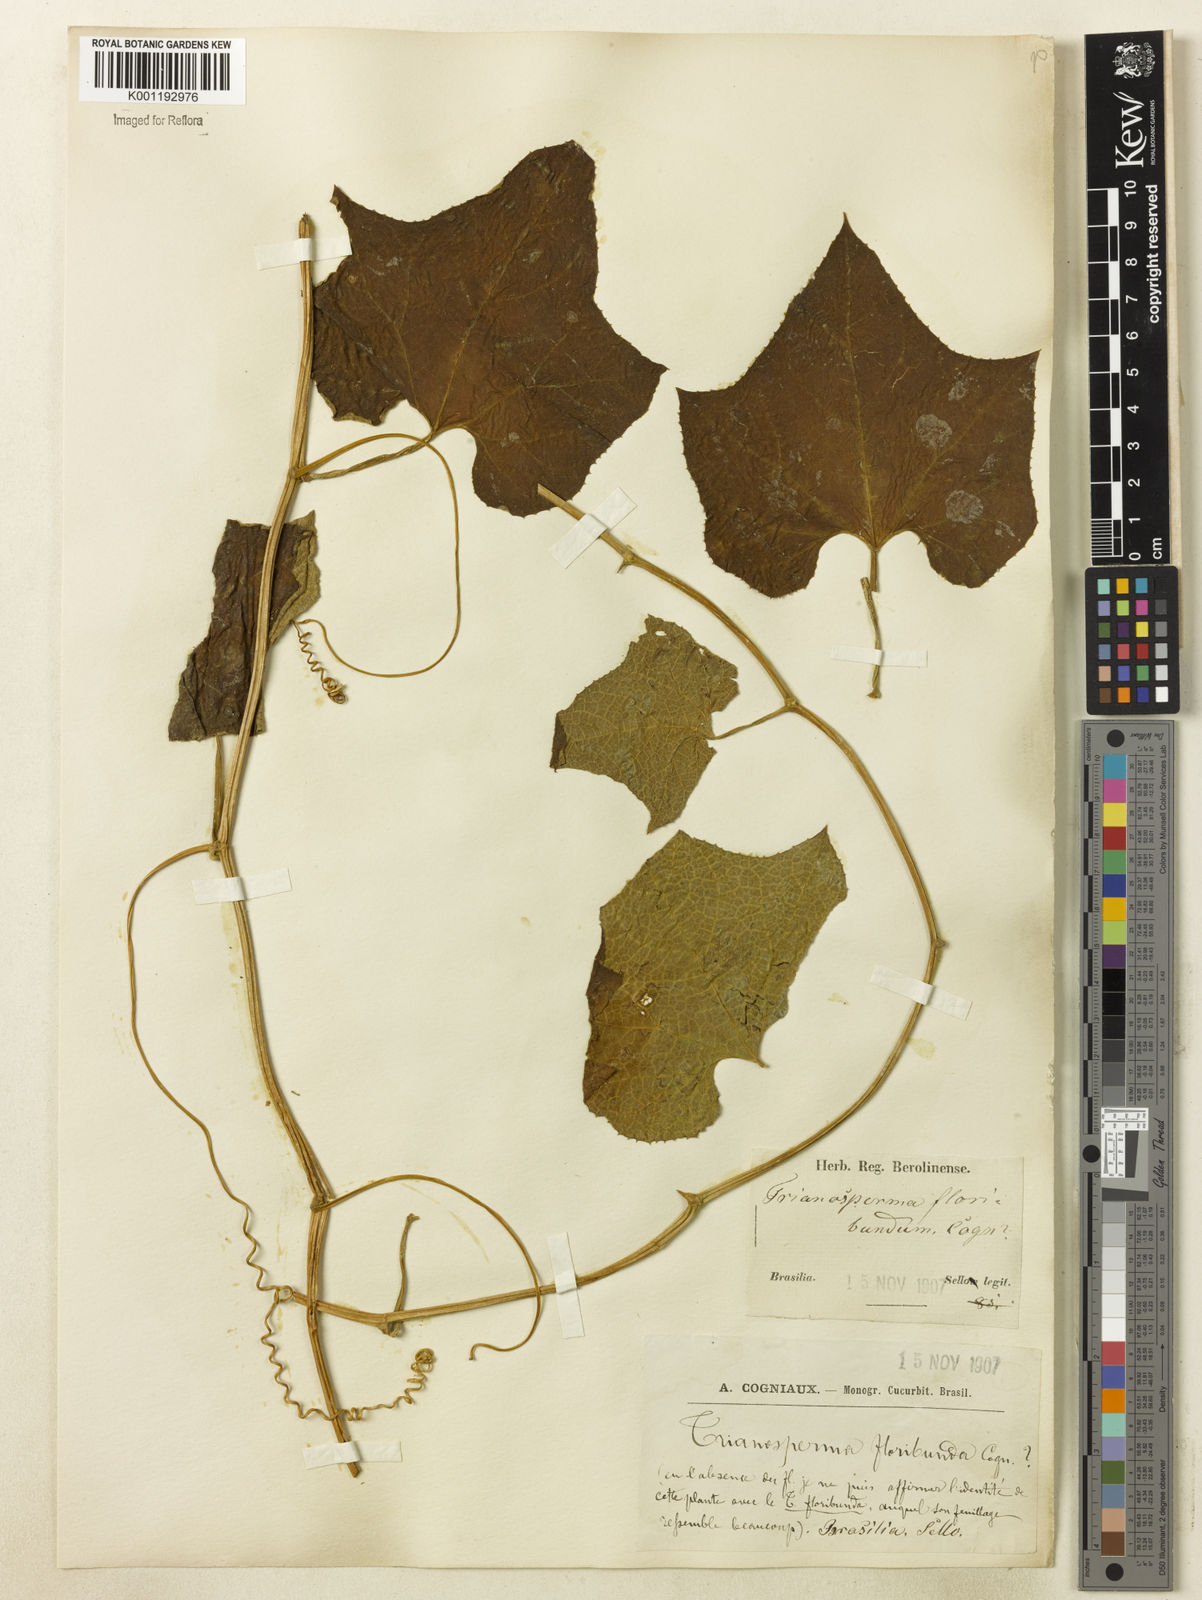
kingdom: Plantae
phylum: Tracheophyta
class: Magnoliopsida
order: Cucurbitales
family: Cucurbitaceae
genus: Cayaponia
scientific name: Cayaponia floribunda
